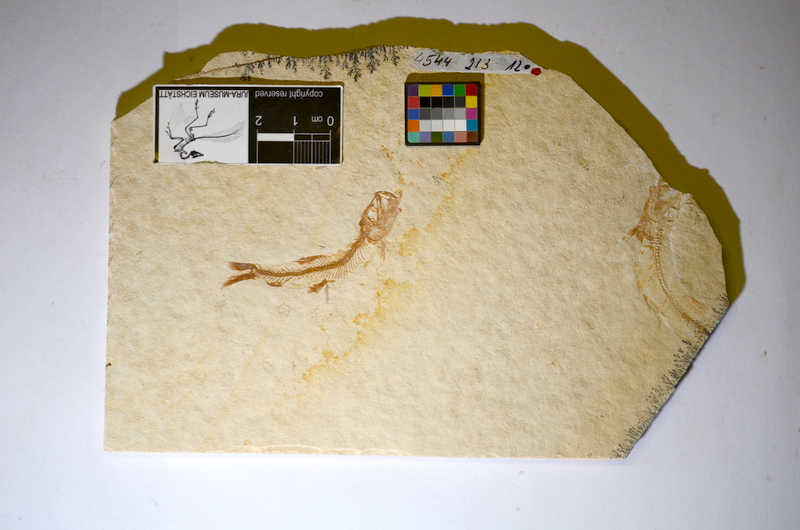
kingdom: Animalia
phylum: Chordata
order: Salmoniformes
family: Orthogonikleithridae
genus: Leptolepides
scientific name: Leptolepides sprattiformis
